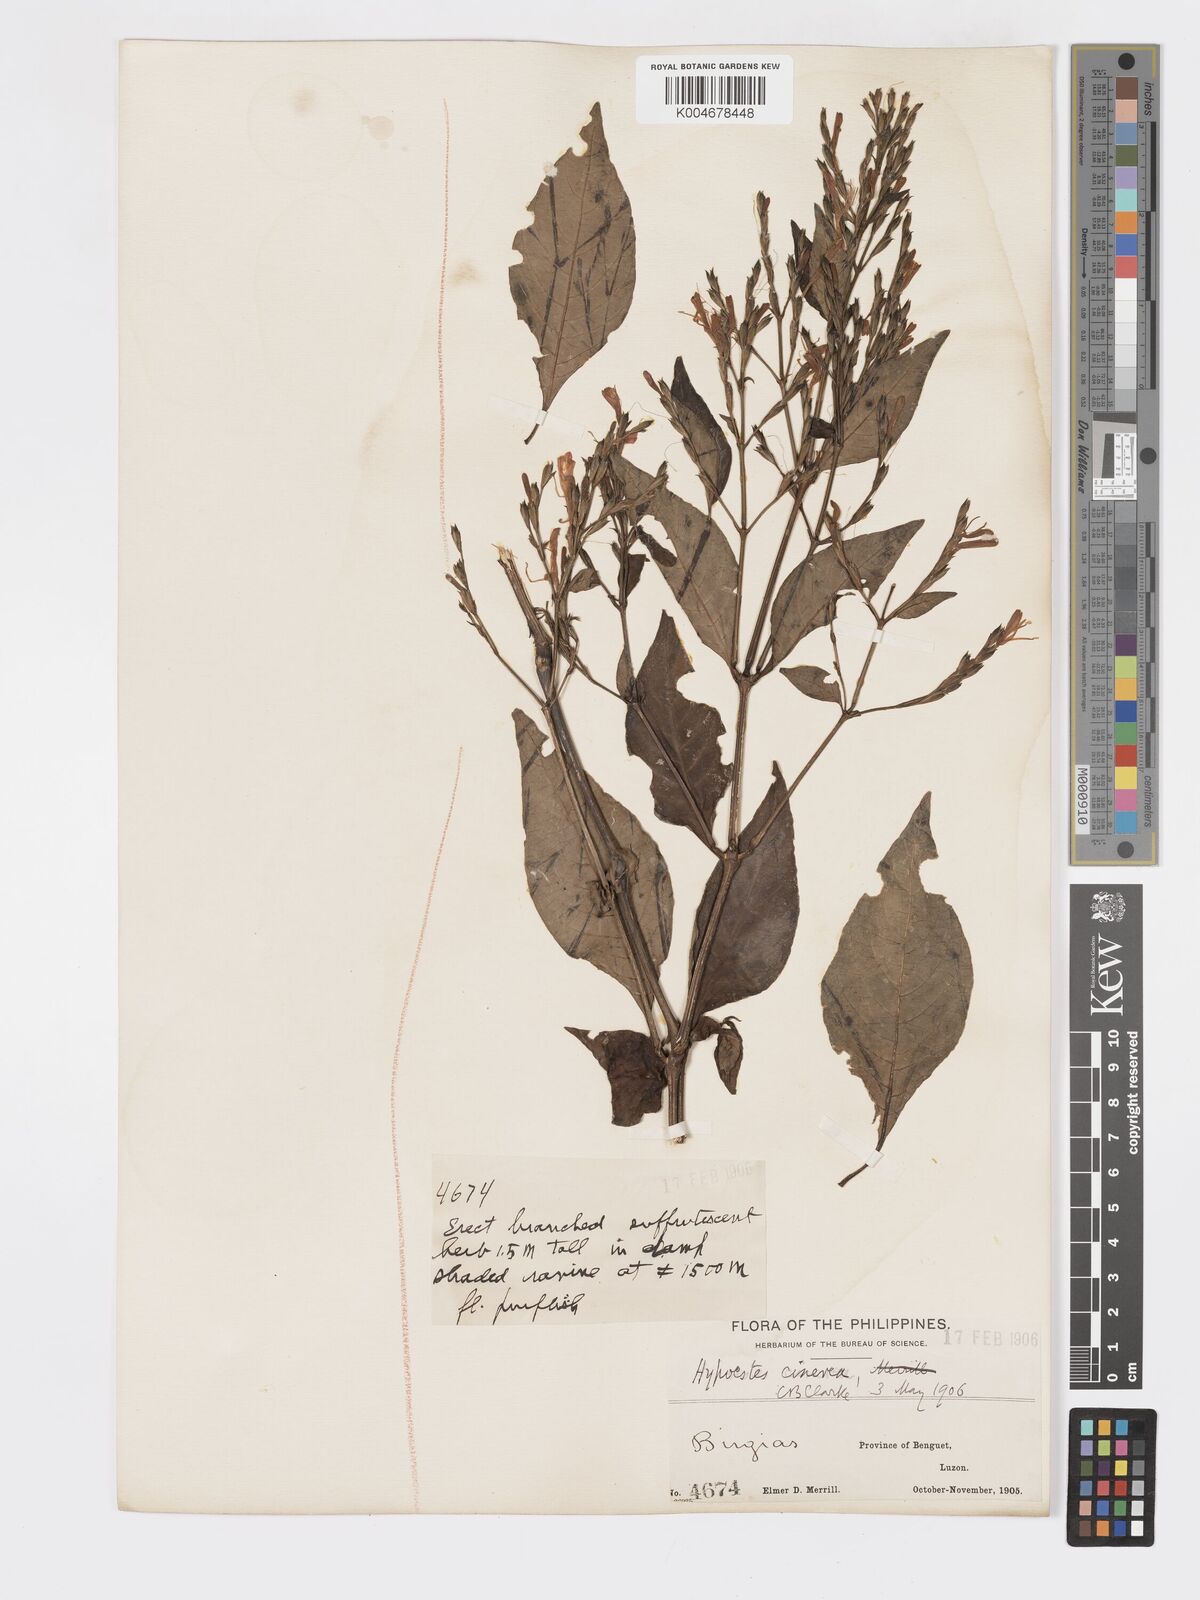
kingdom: Plantae
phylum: Tracheophyta
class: Magnoliopsida
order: Lamiales
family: Acanthaceae
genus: Hypoestes
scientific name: Hypoestes
